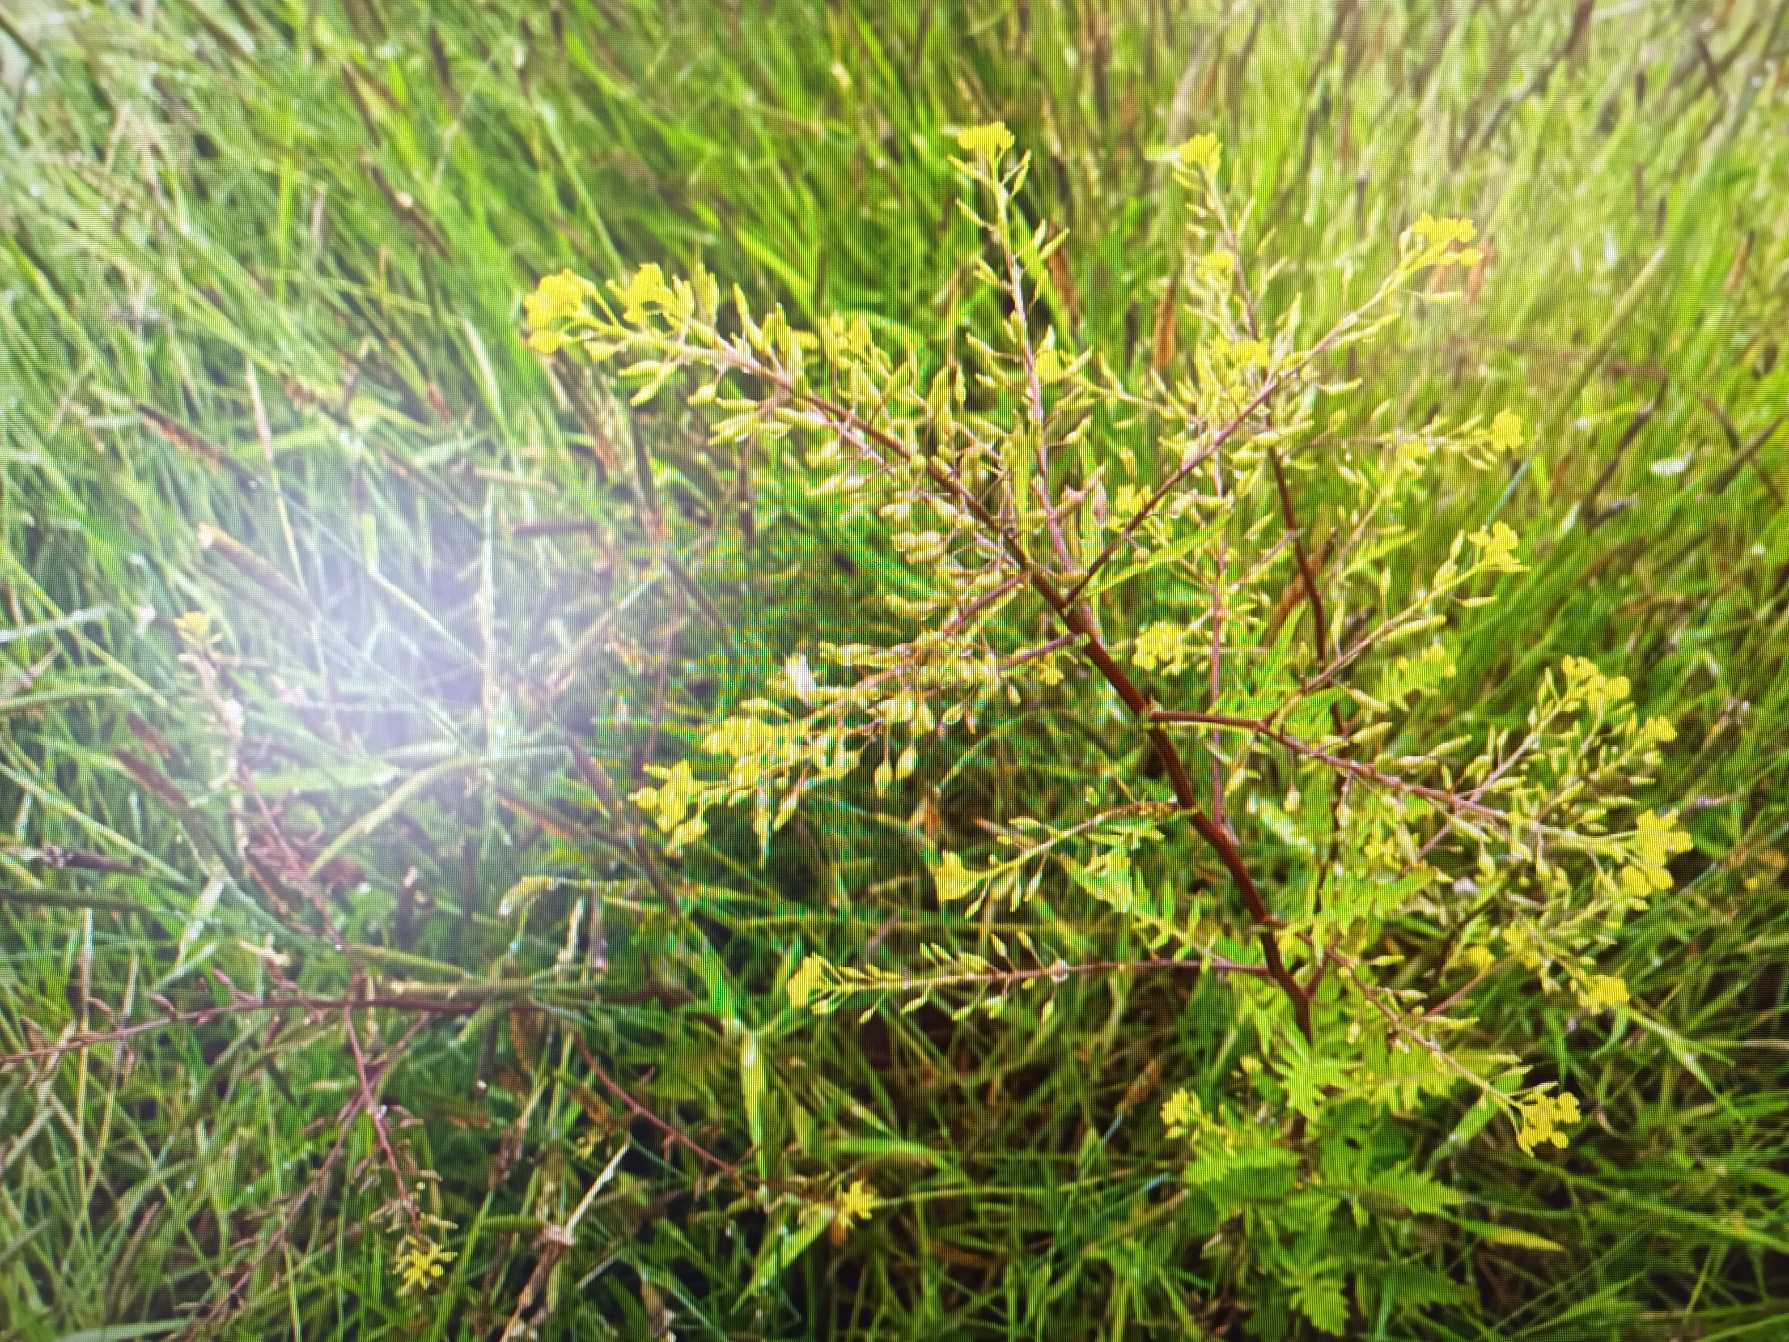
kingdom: Plantae
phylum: Tracheophyta
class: Magnoliopsida
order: Brassicales
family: Brassicaceae
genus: Rorippa
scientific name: Rorippa palustris
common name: Kær-guldkarse
